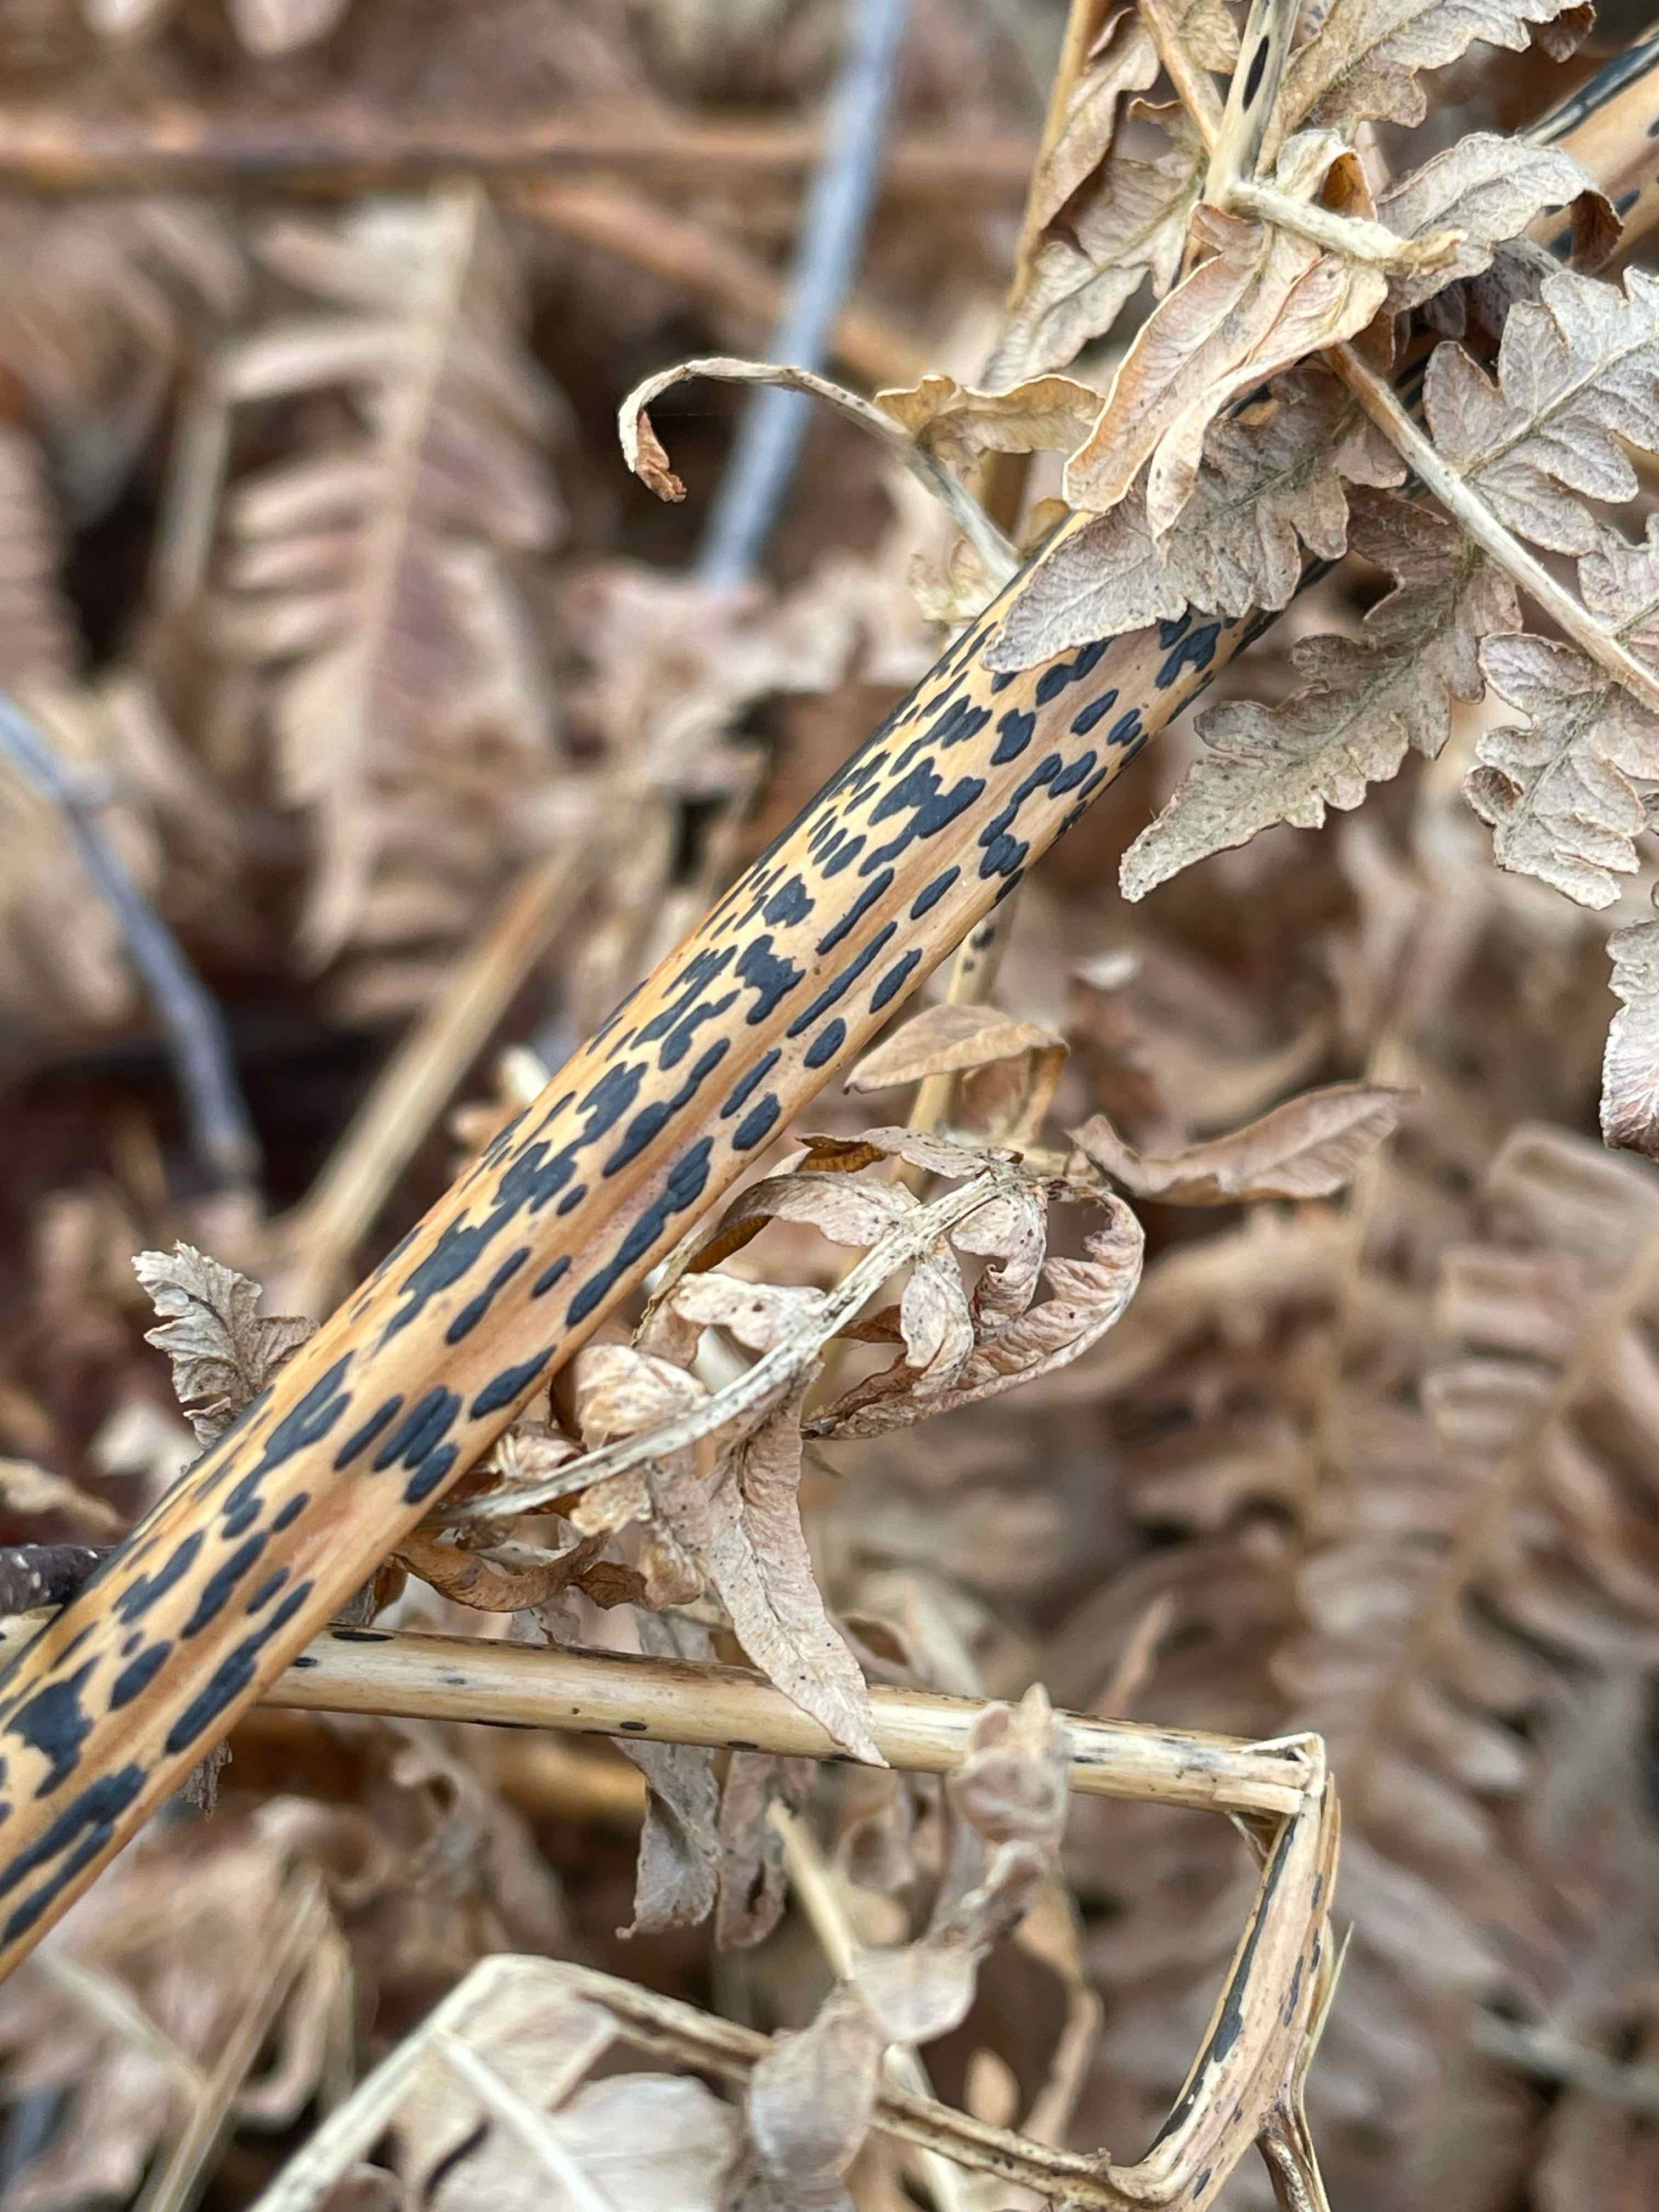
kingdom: Fungi
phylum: Ascomycota
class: Dothideomycetes
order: Pleosporales
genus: Rhopographus
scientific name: Rhopographus filicinus
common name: Bracken map
